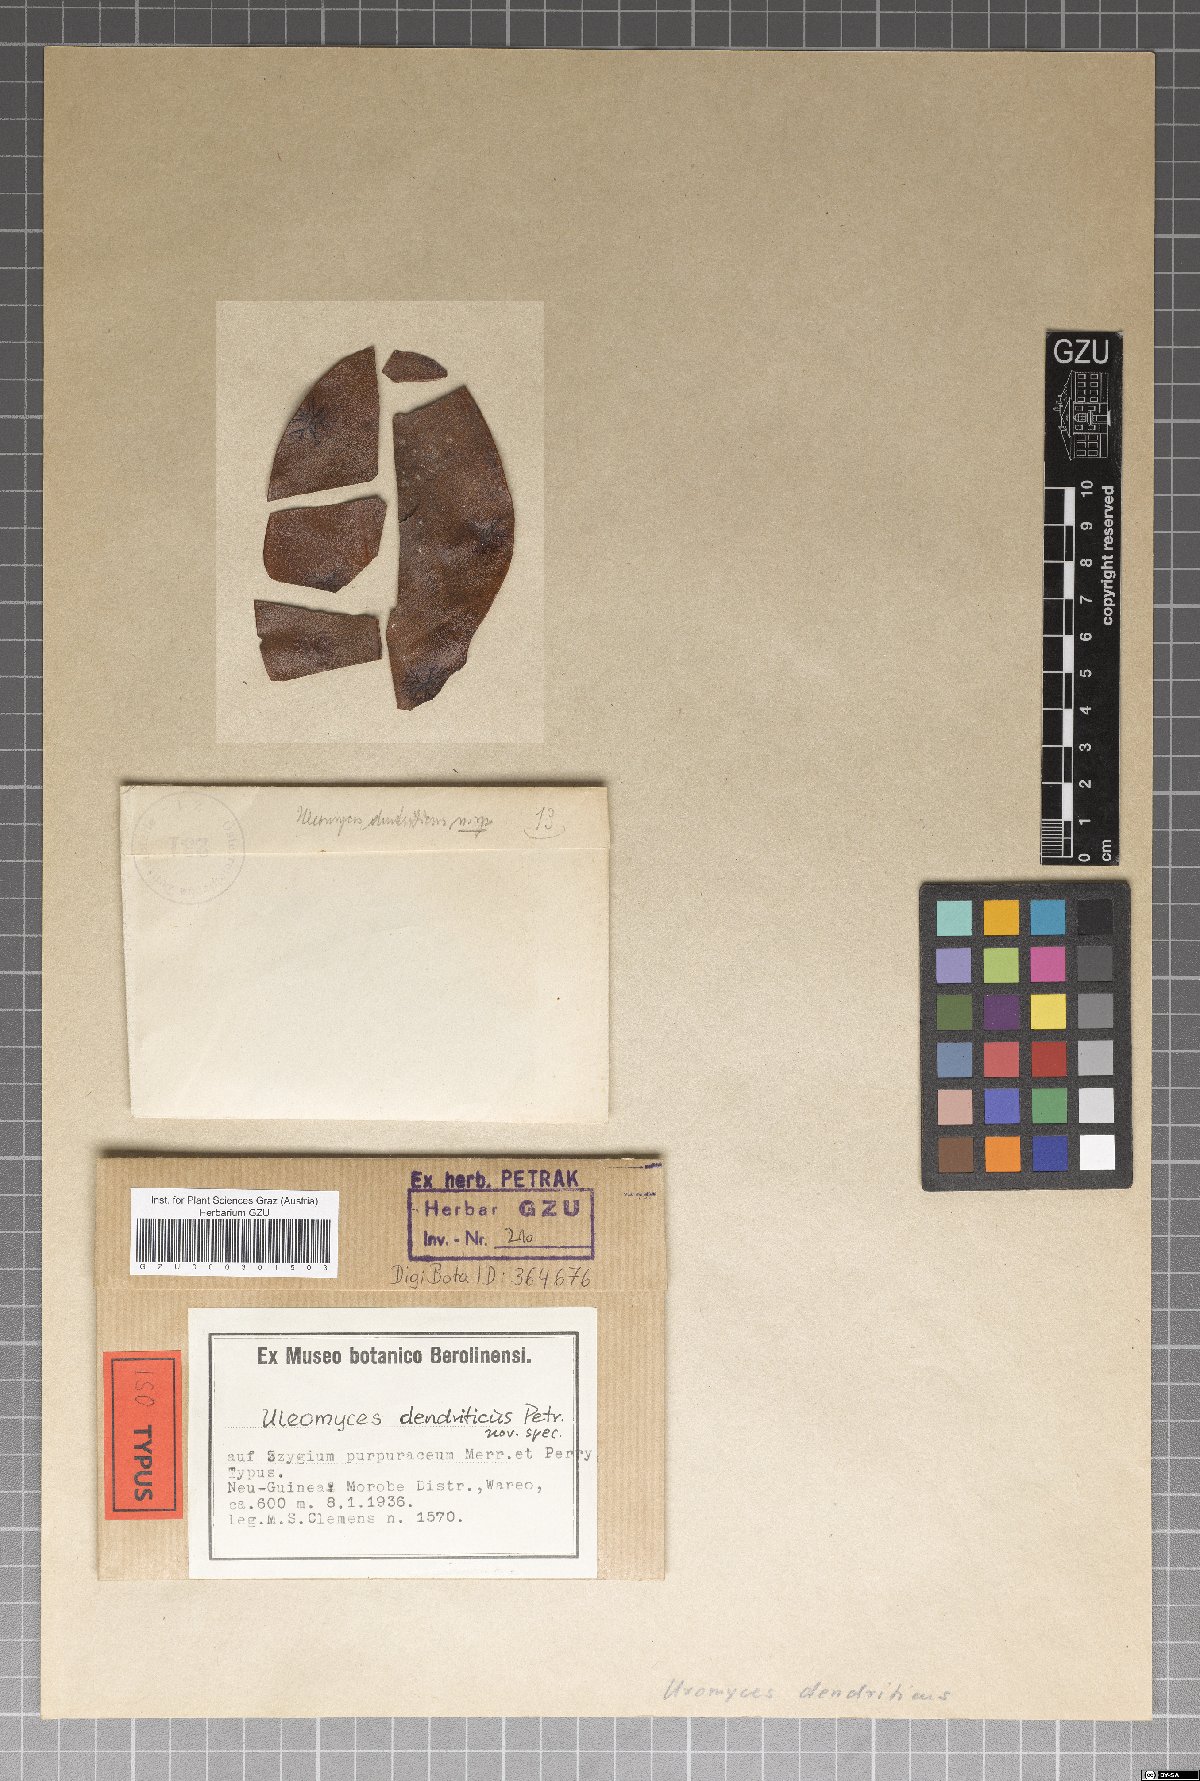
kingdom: Fungi
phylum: Ascomycota
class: Dothideomycetes
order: Myriangiales
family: Cookellaceae
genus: Uleomyces
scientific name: Uleomyces dendriticus
